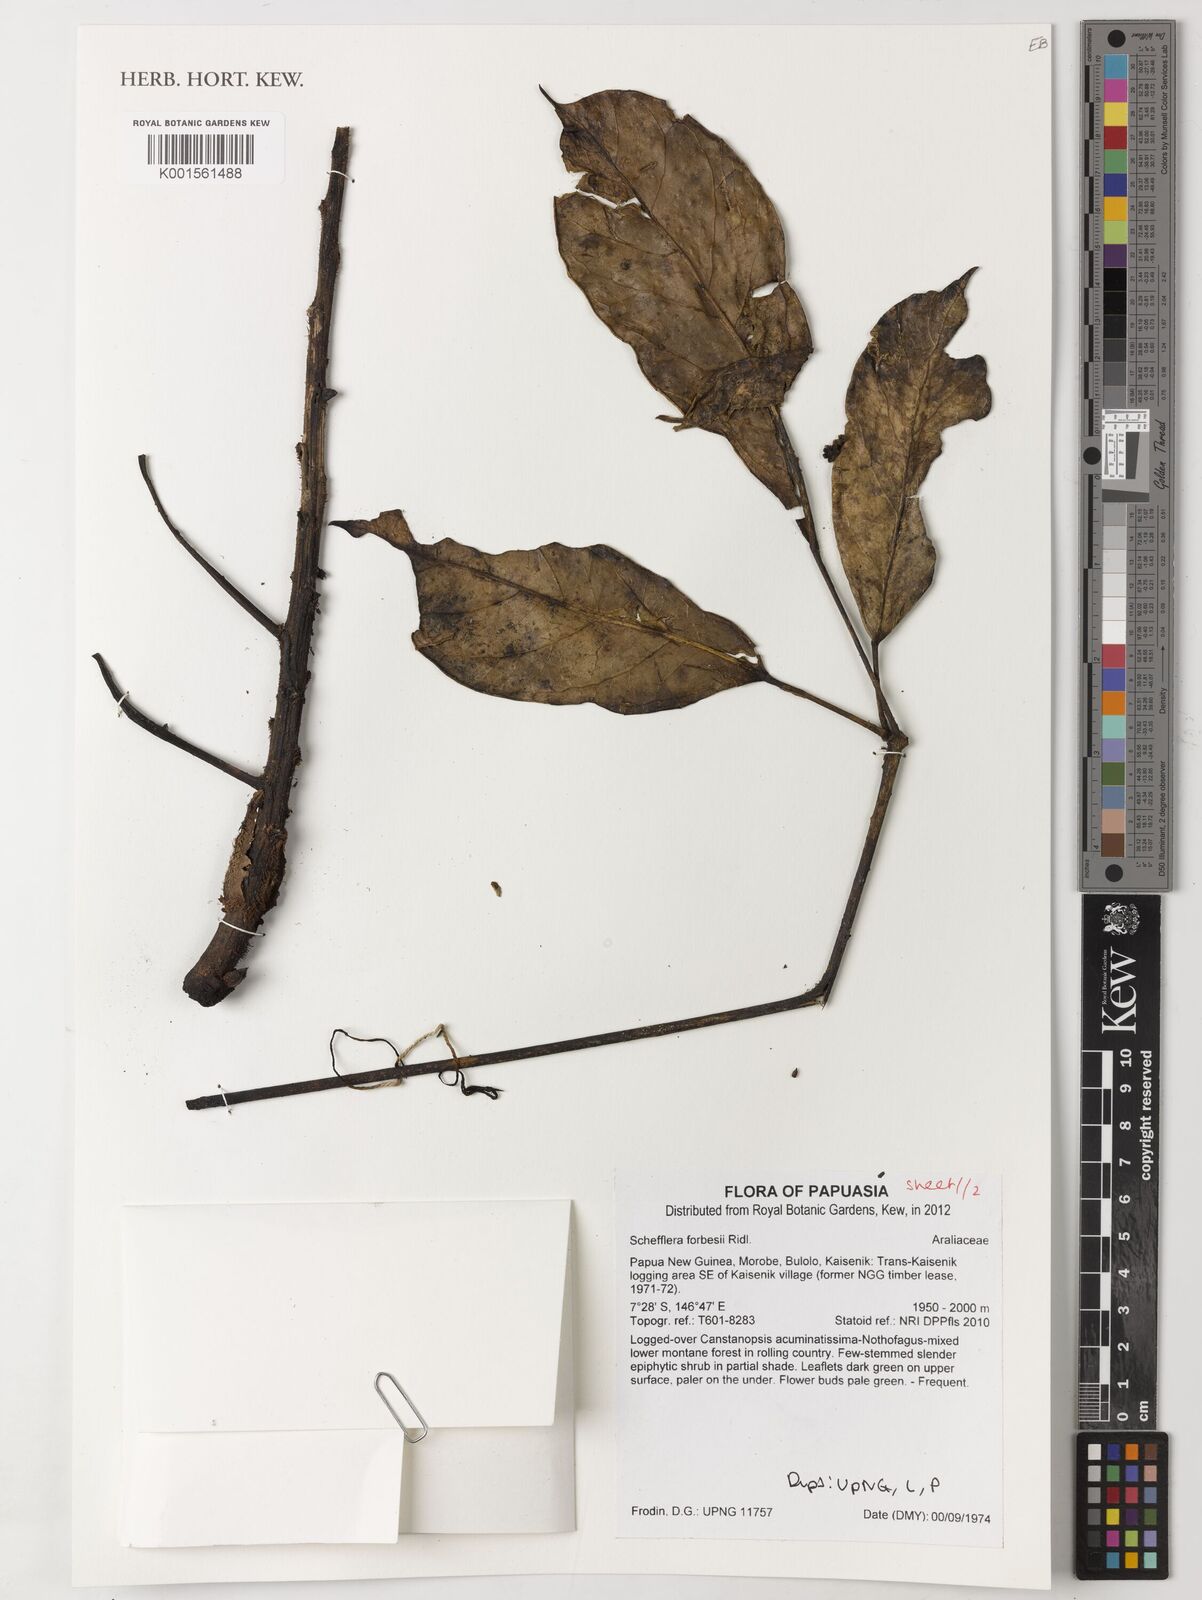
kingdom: Plantae
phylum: Tracheophyta
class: Magnoliopsida
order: Apiales
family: Araliaceae
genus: Heptapleurum
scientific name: Heptapleurum forbesii
